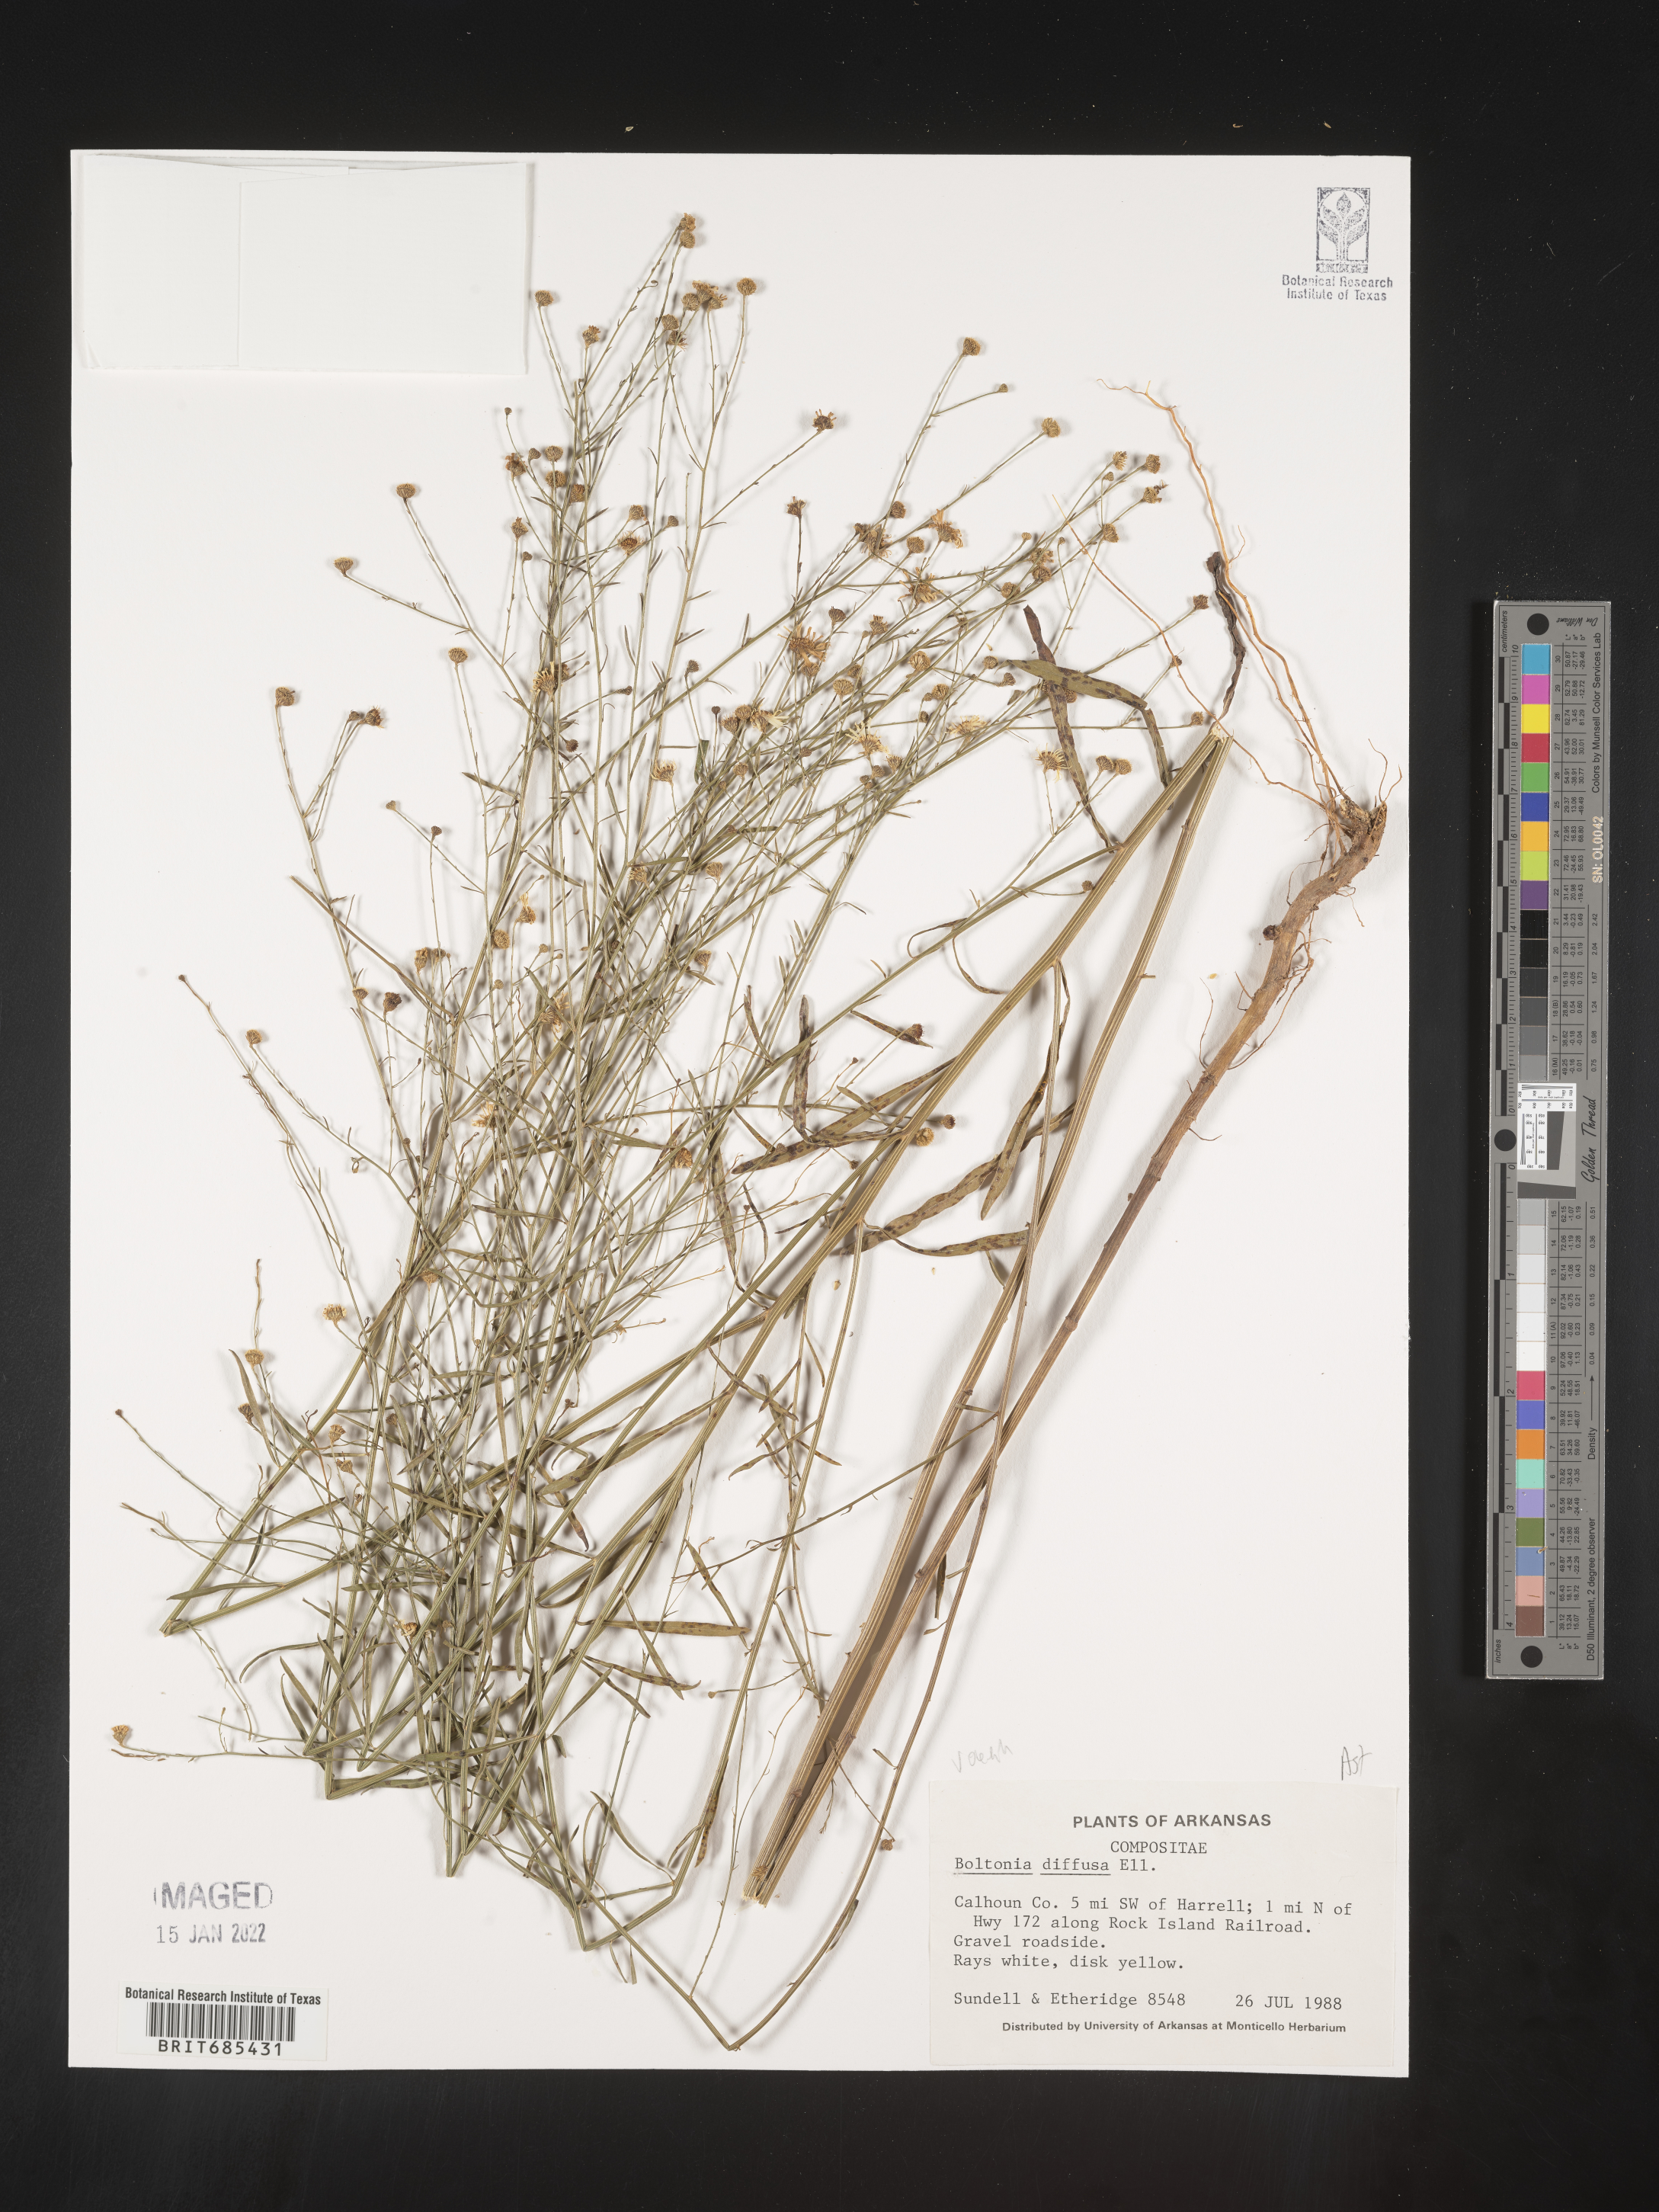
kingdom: Plantae
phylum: Tracheophyta
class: Magnoliopsida
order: Asterales
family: Asteraceae
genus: Boltonia
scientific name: Boltonia diffusa
